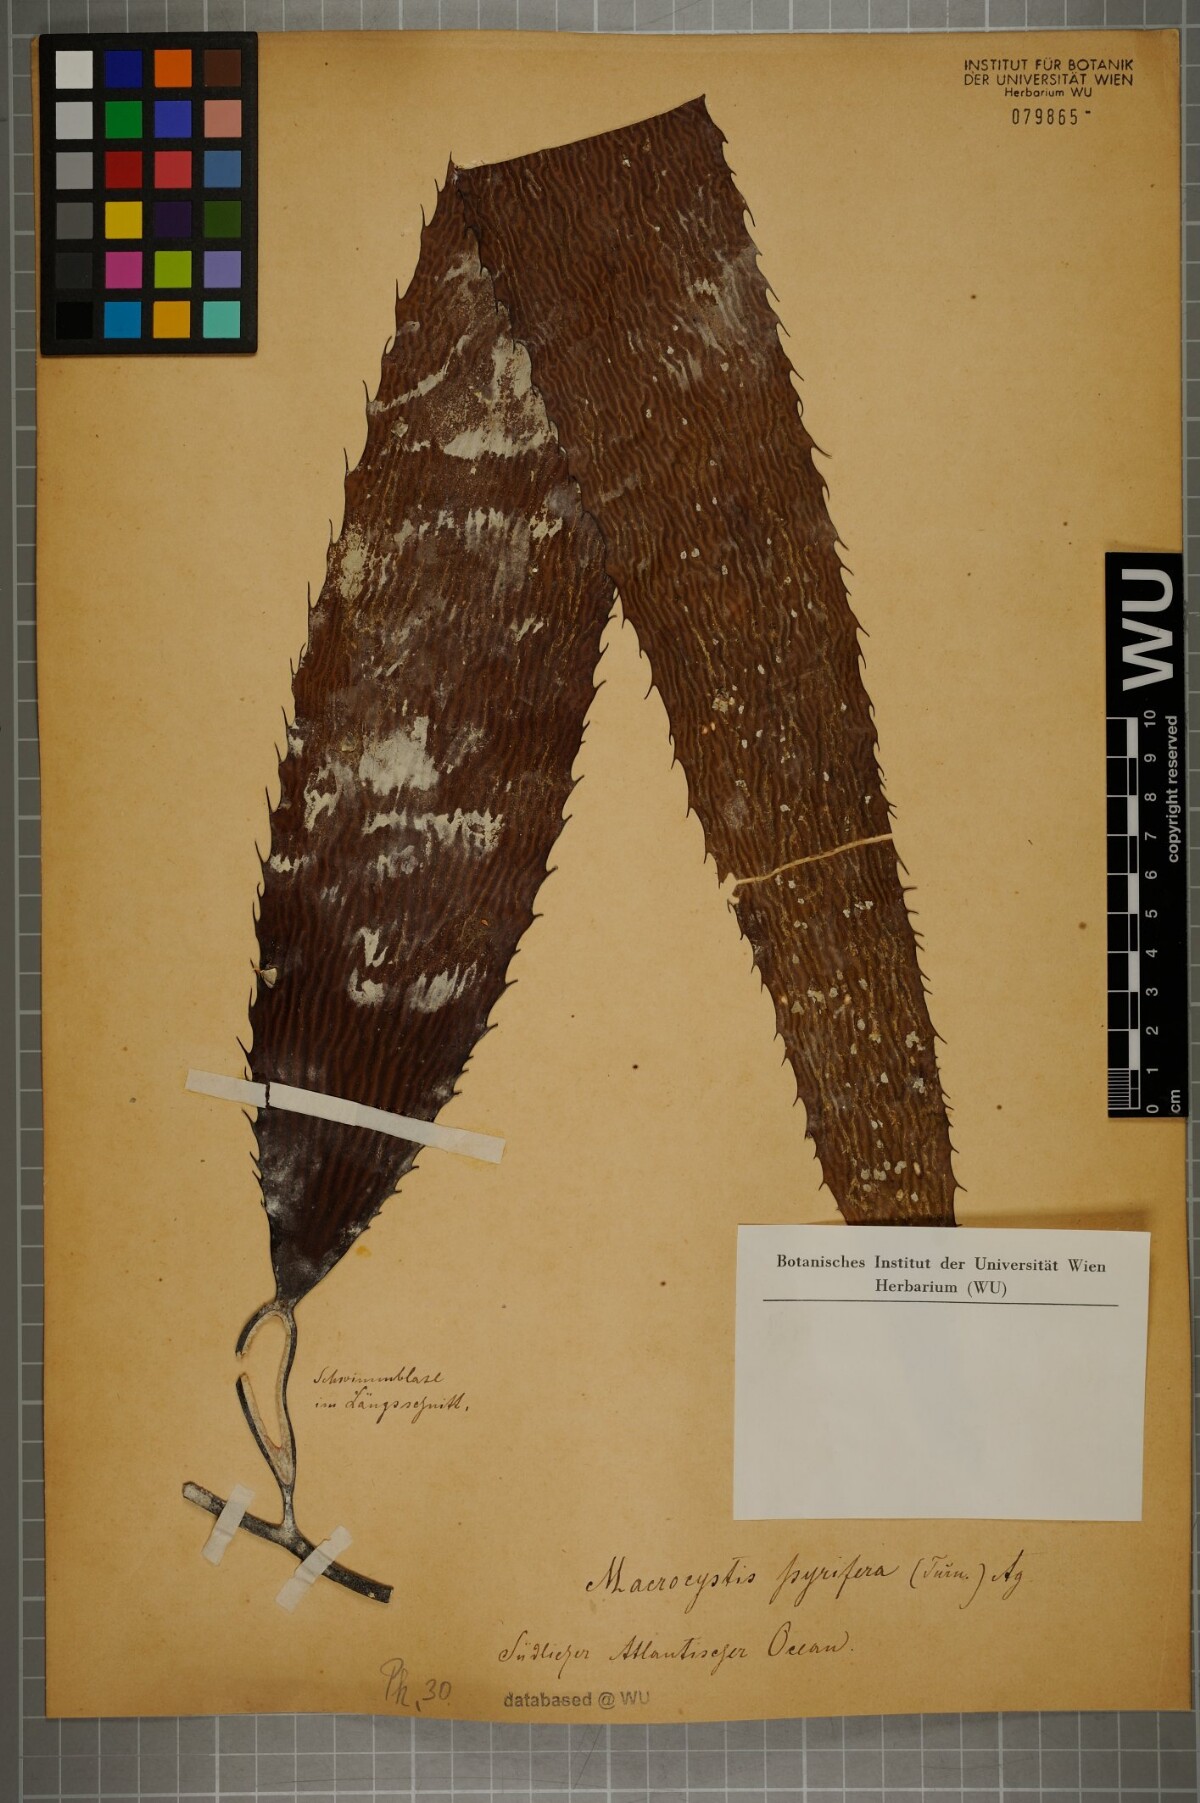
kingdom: Chromista
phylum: Ochrophyta
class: Phaeophyceae
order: Laminariales
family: Laminariaceae
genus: Macrocystis
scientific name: Macrocystis pyrifera
